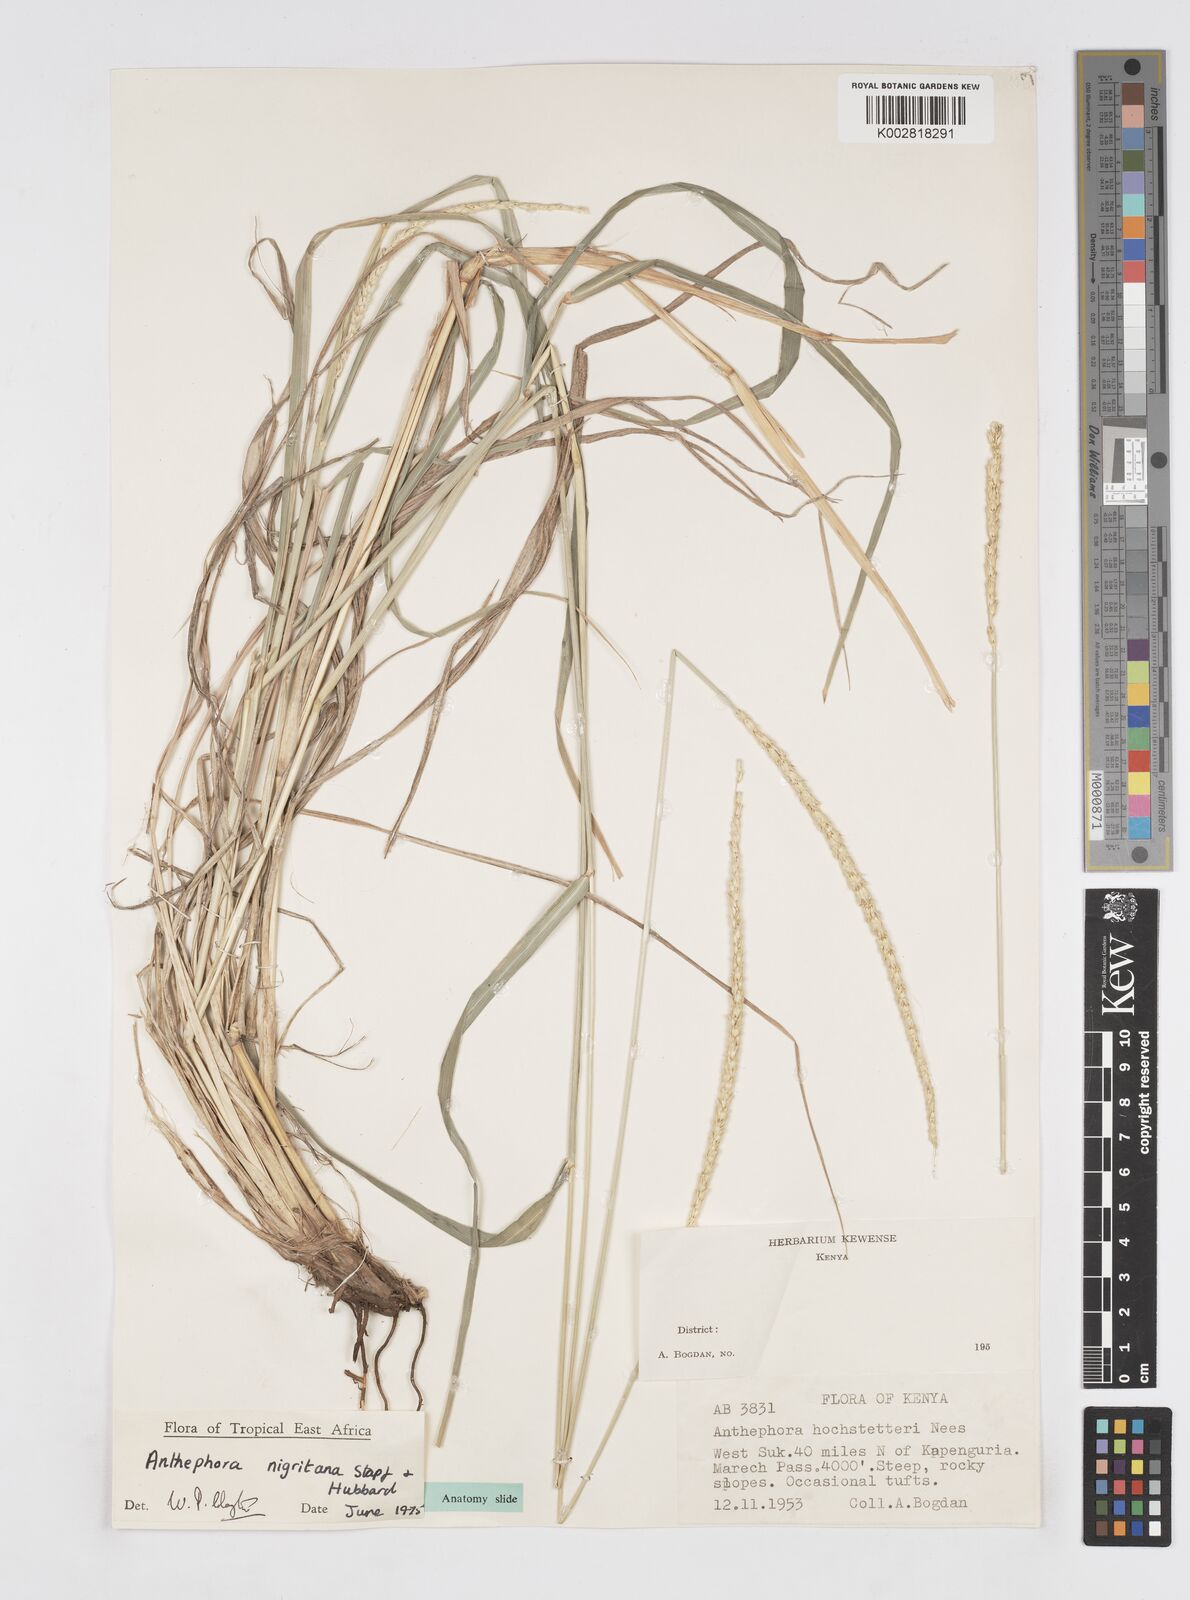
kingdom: Plantae
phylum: Tracheophyta
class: Liliopsida
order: Poales
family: Poaceae
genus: Anthephora
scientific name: Anthephora nigritana
